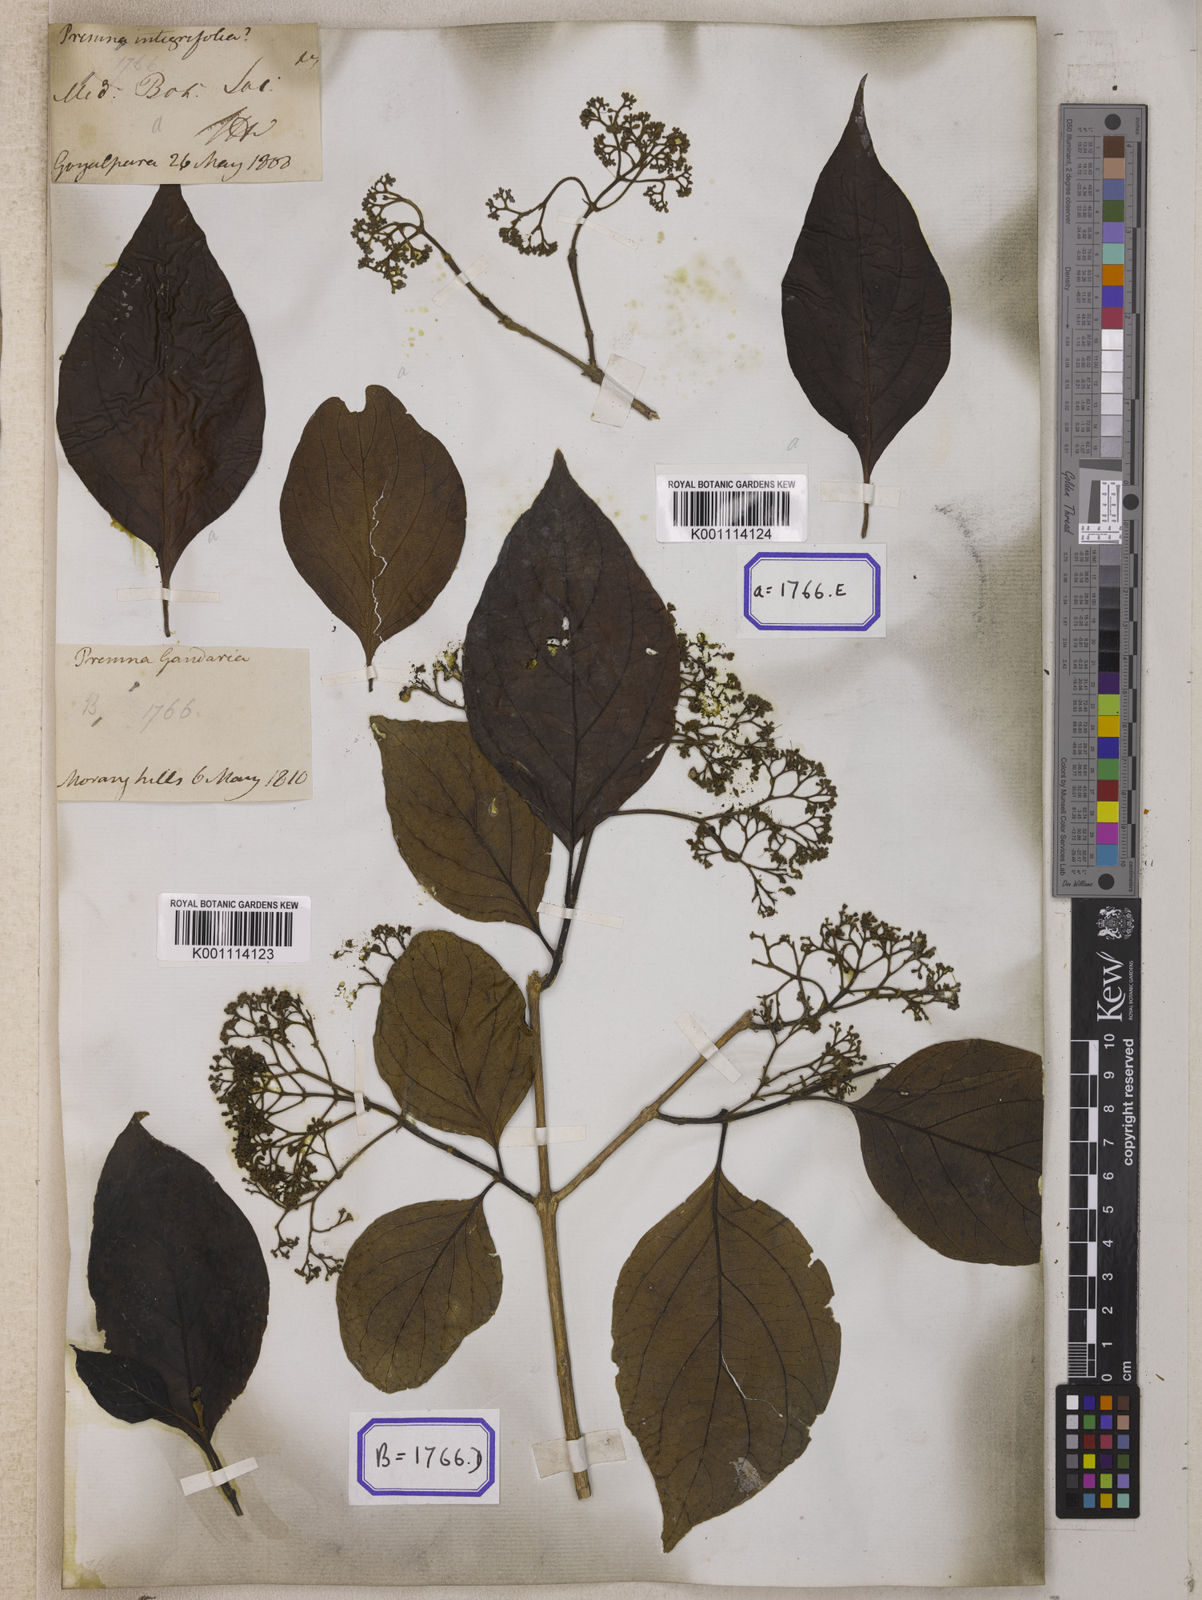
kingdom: Plantae
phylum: Tracheophyta
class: Magnoliopsida
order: Lamiales
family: Lamiaceae
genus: Premna
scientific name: Premna mollissima
